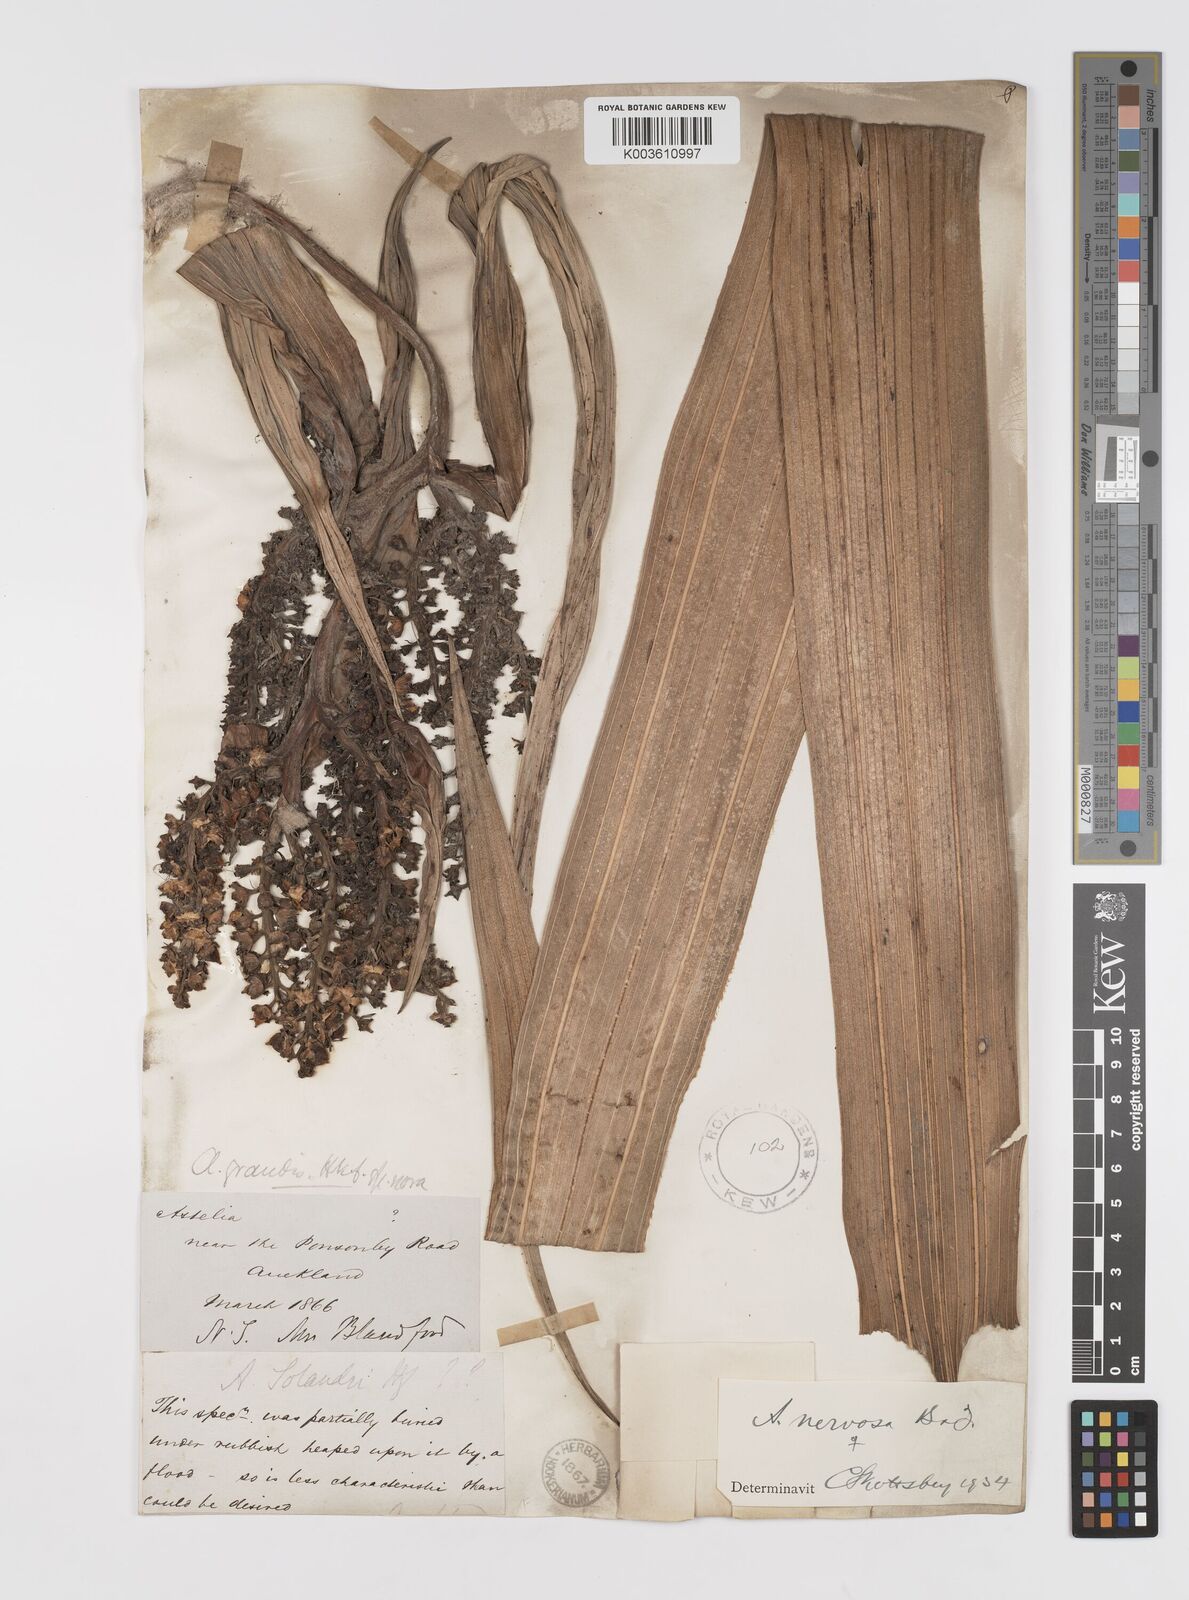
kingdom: Plantae
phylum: Tracheophyta
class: Liliopsida
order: Asparagales
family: Asteliaceae
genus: Astelia
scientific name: Astelia nervosa
